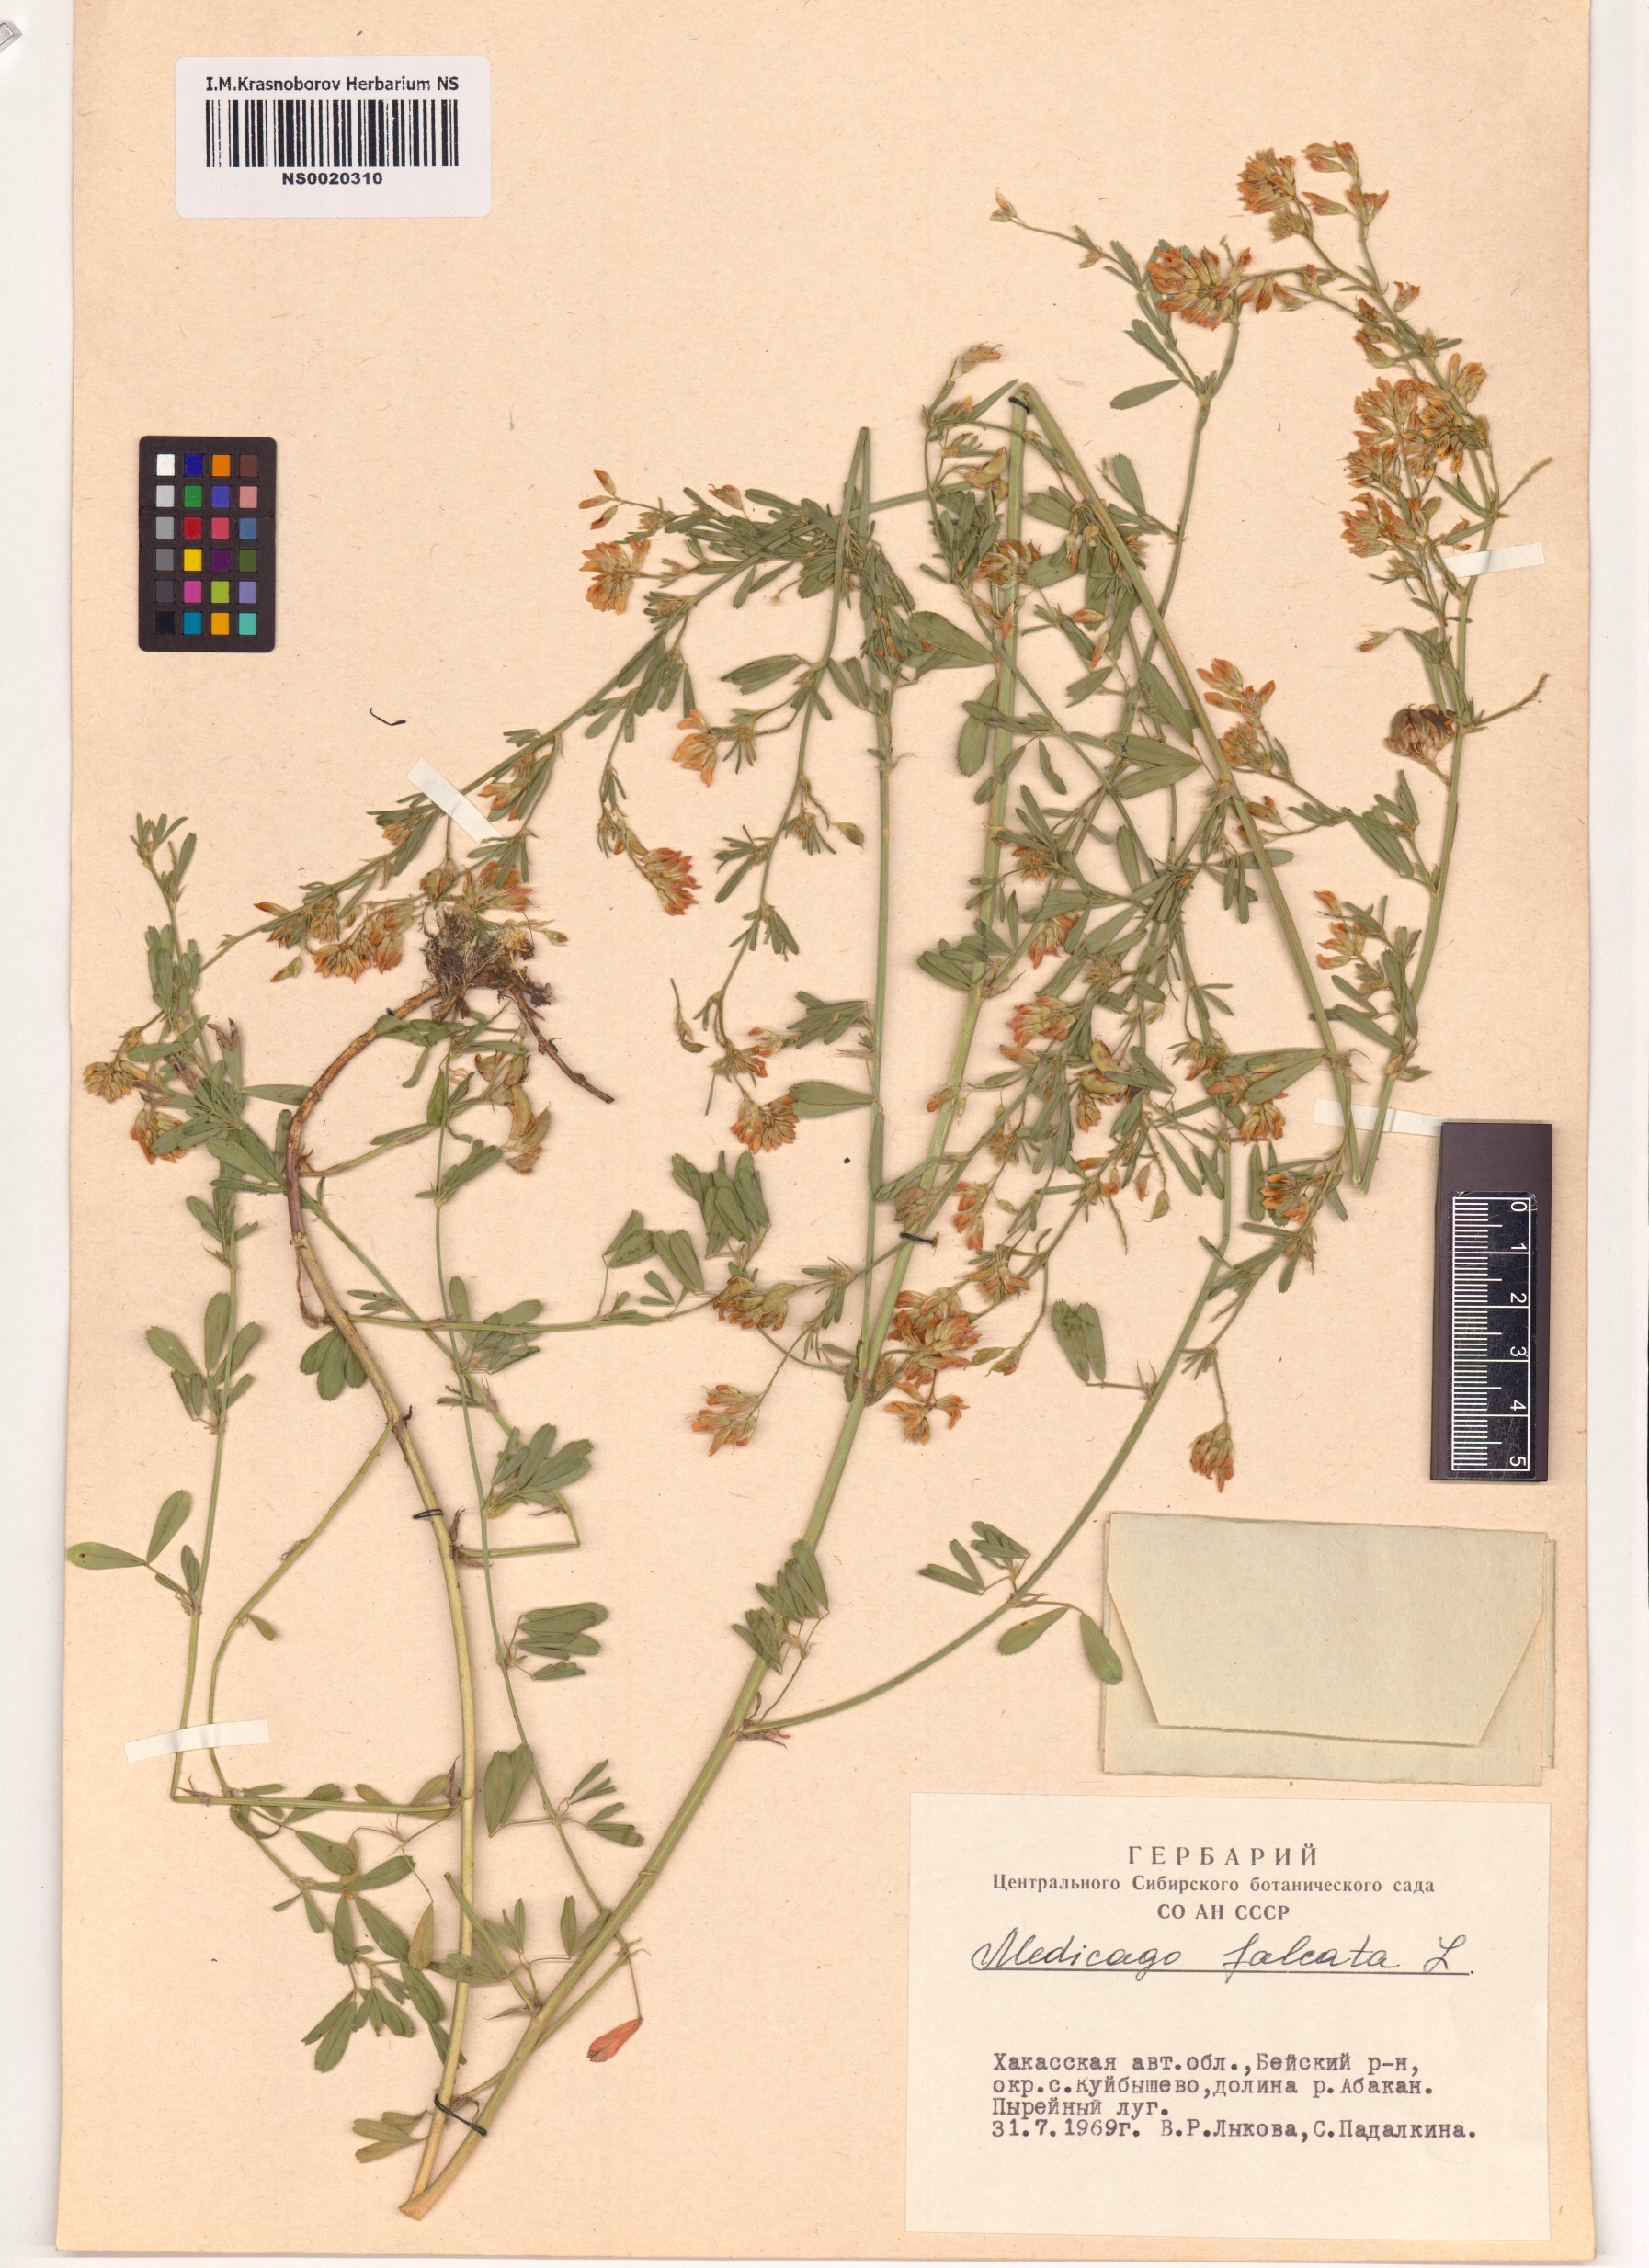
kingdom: Plantae
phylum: Tracheophyta
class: Magnoliopsida
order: Fabales
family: Fabaceae
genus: Medicago
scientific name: Medicago falcata
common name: Sickle medick
